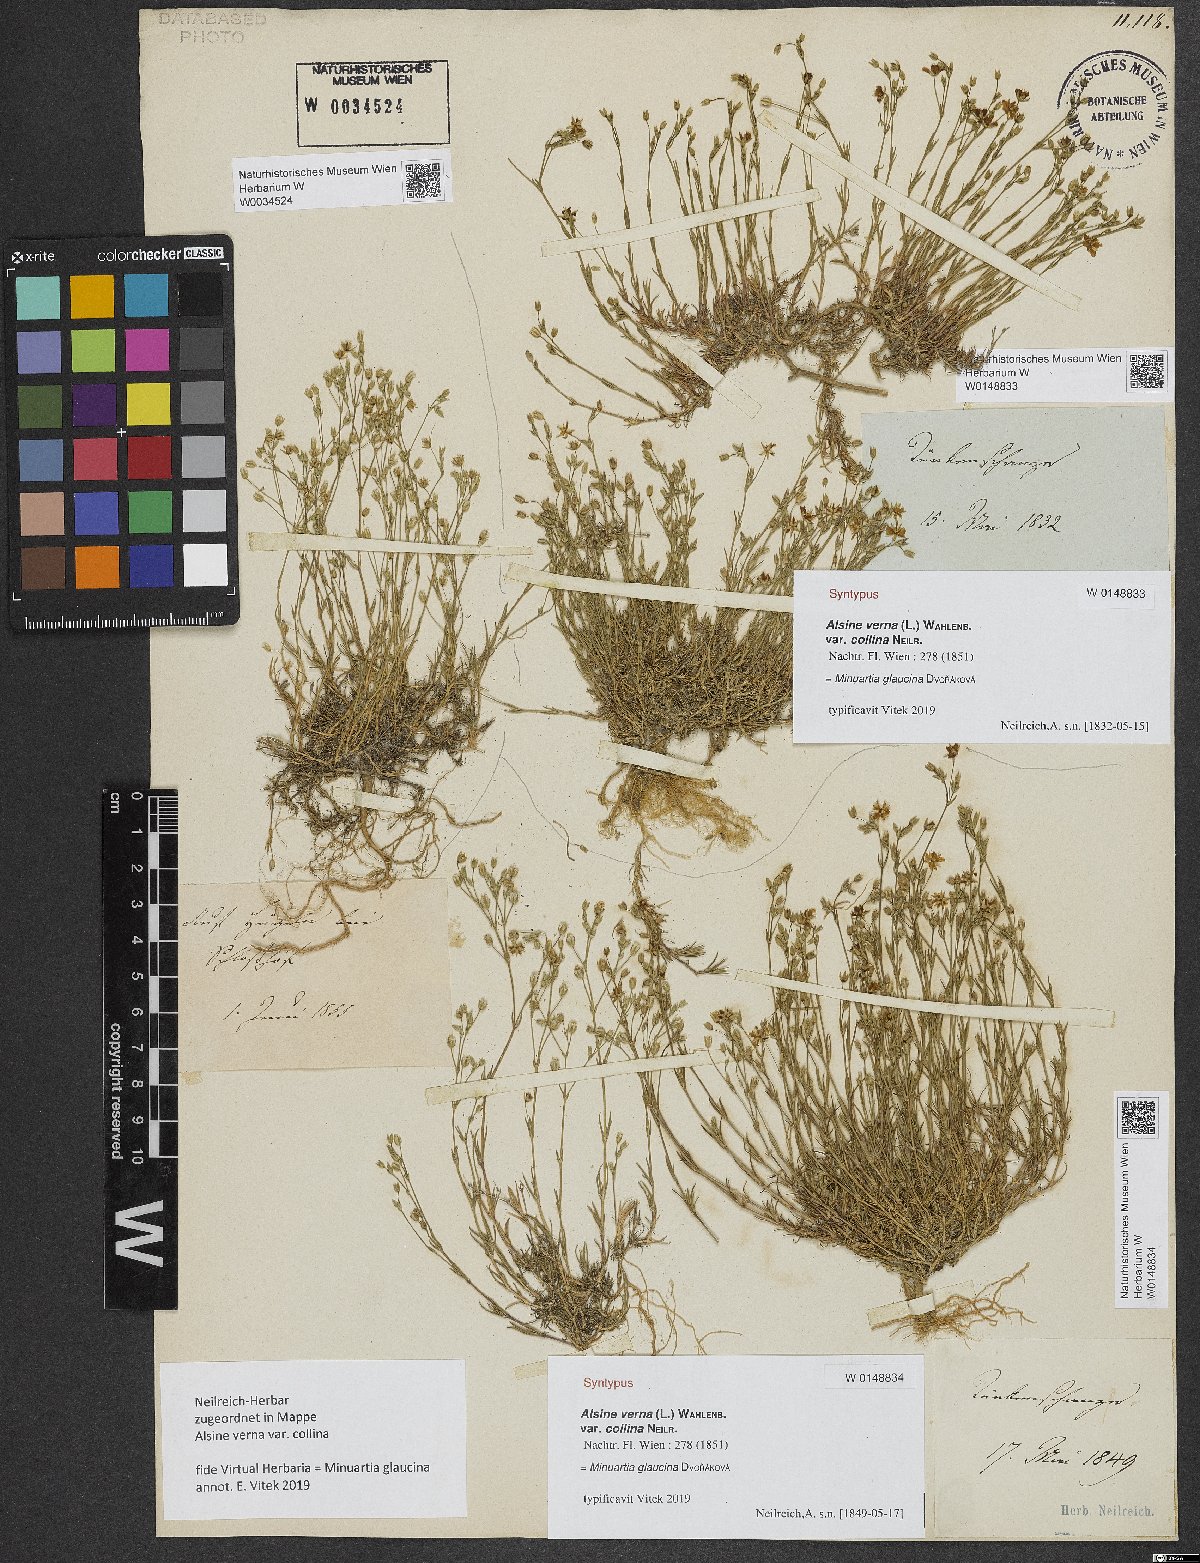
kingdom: Plantae
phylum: Tracheophyta
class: Magnoliopsida
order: Caryophyllales
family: Caryophyllaceae
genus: Sabulina
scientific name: Sabulina glaucina
